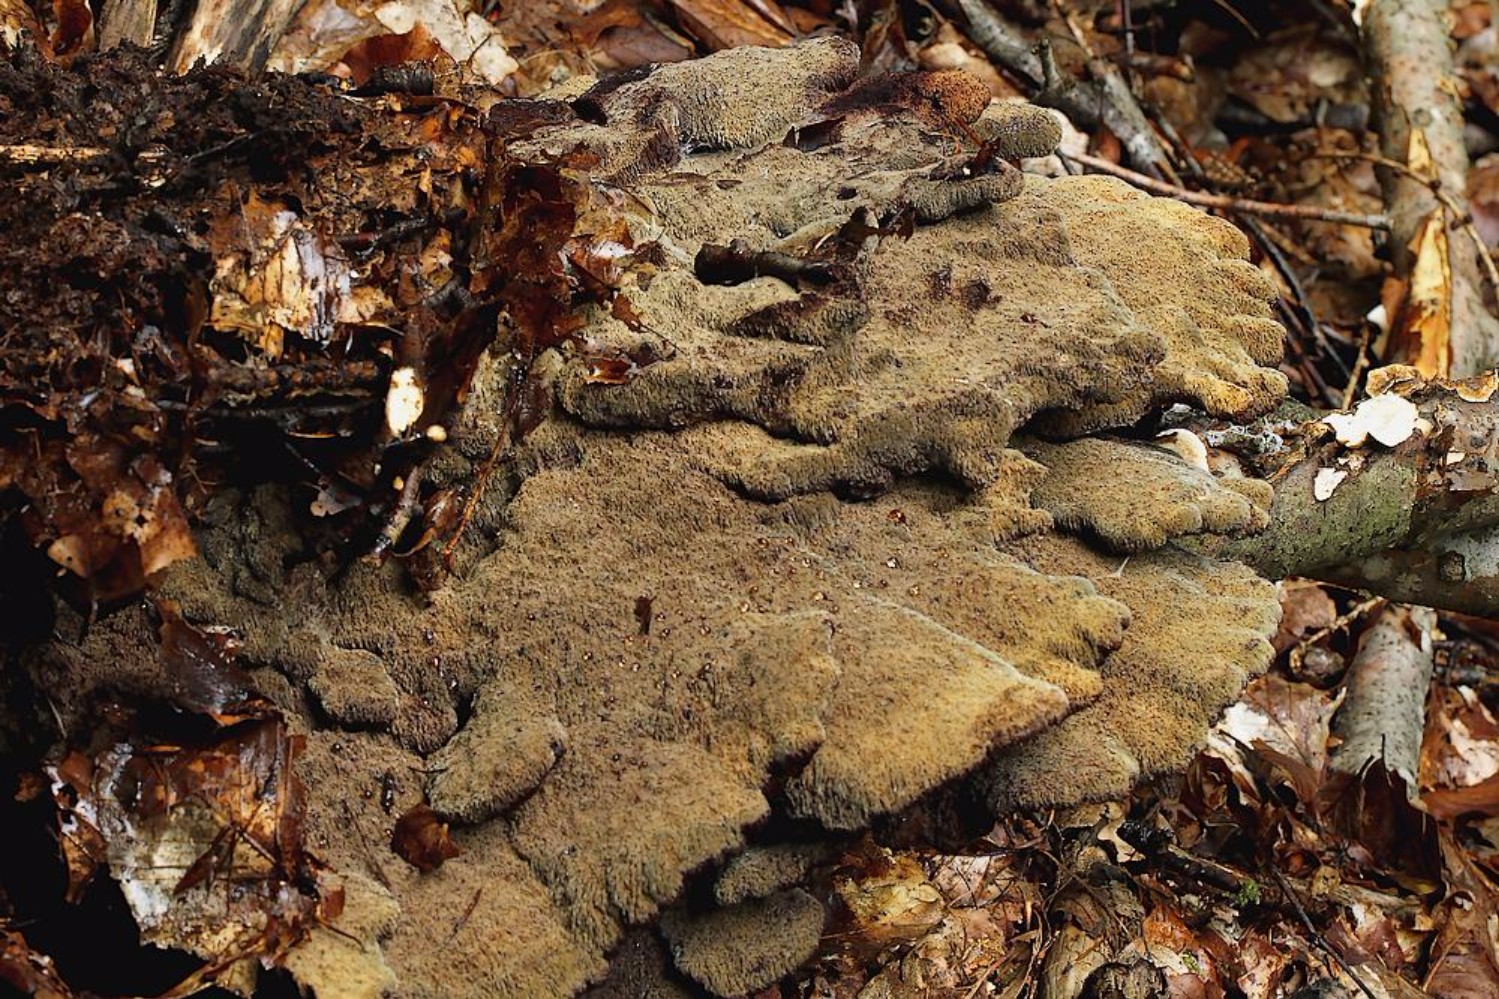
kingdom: Fungi
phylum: Basidiomycota
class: Agaricomycetes
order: Polyporales
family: Laetiporaceae
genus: Phaeolus
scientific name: Phaeolus schweinitzii
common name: brunporesvamp
